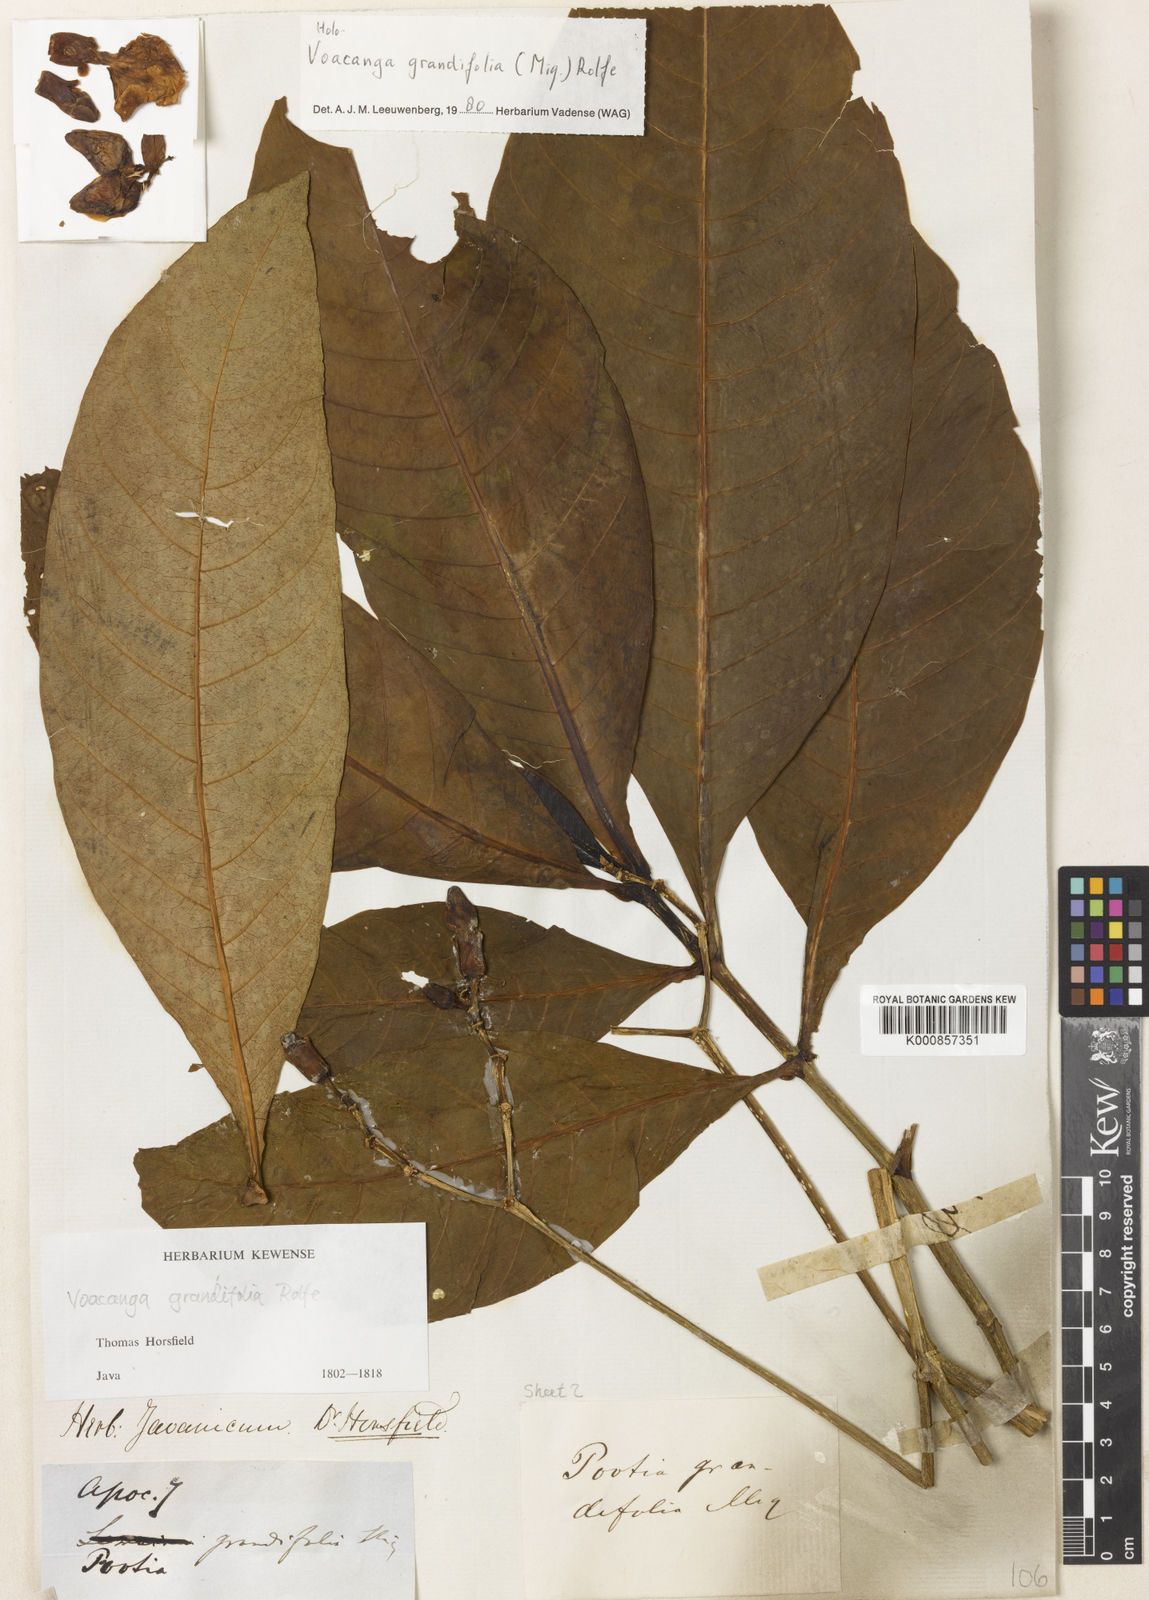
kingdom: Plantae
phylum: Tracheophyta
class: Magnoliopsida
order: Gentianales
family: Apocynaceae
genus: Voacanga
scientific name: Voacanga grandifolia
